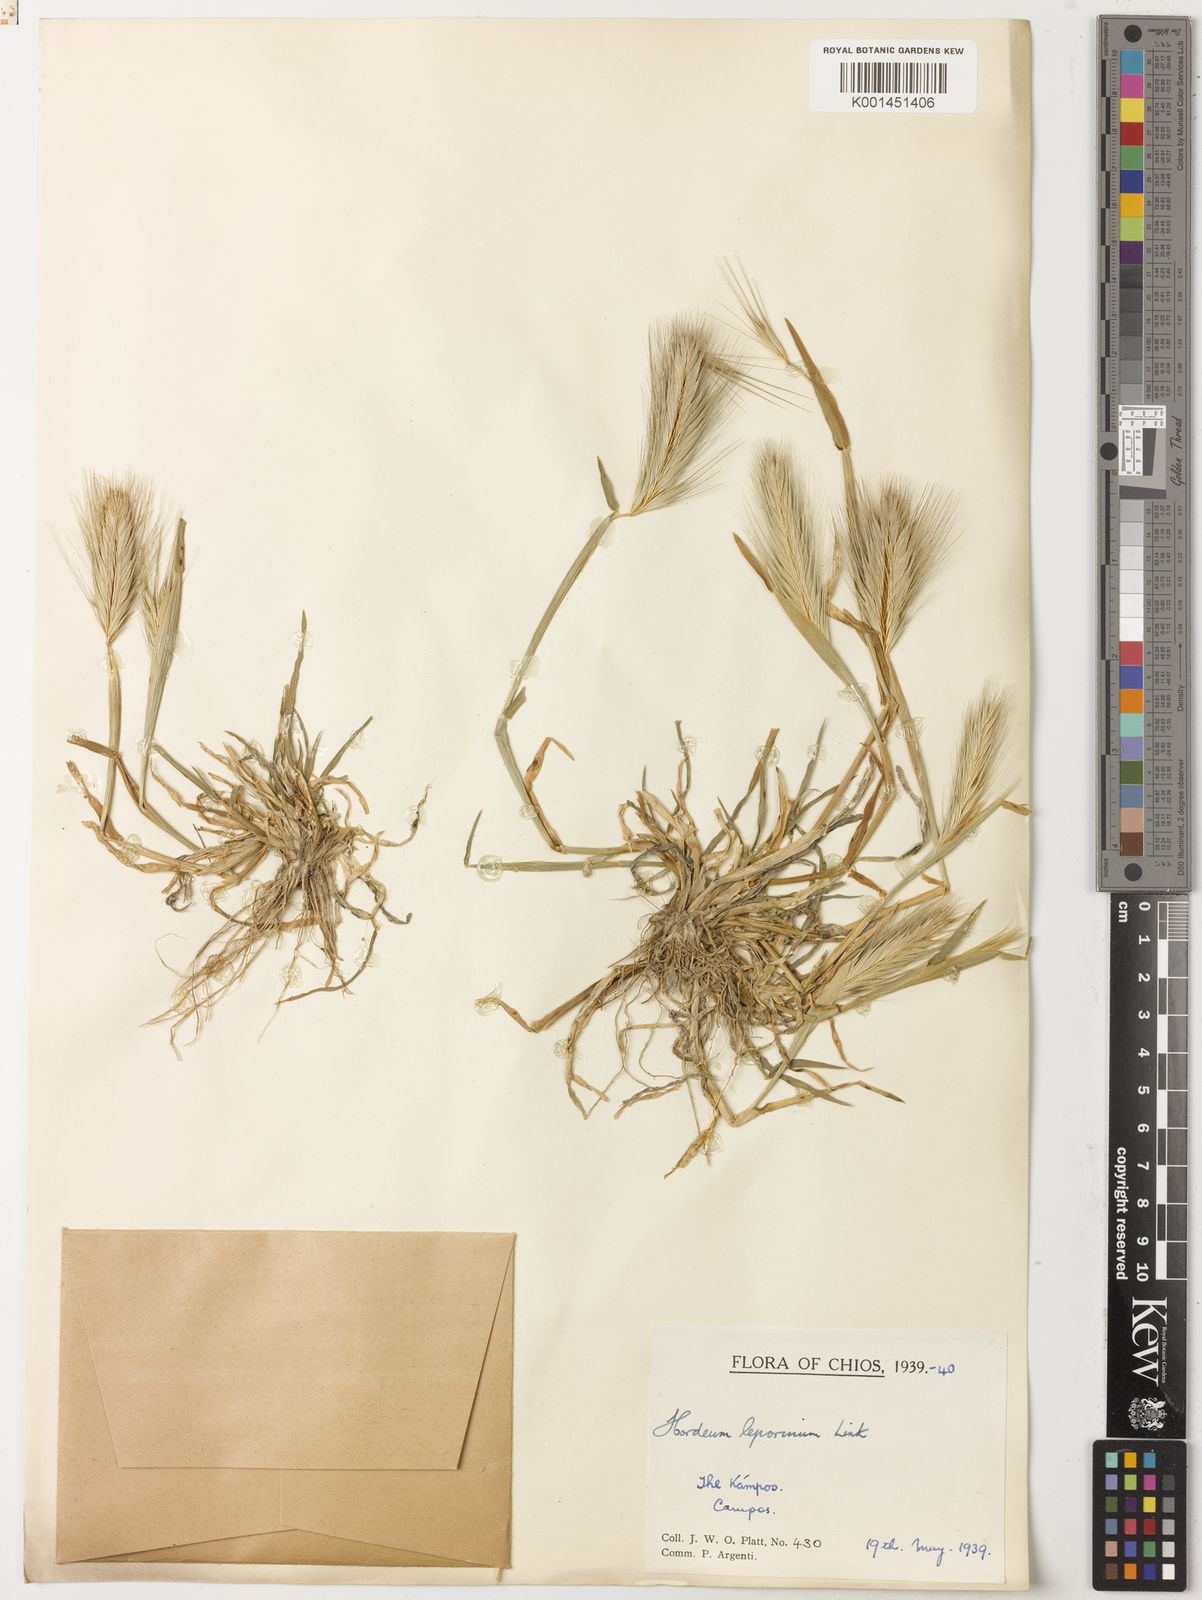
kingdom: Plantae
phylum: Tracheophyta
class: Liliopsida
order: Poales
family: Poaceae
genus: Hordeum
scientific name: Hordeum murinum
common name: Wall barley
